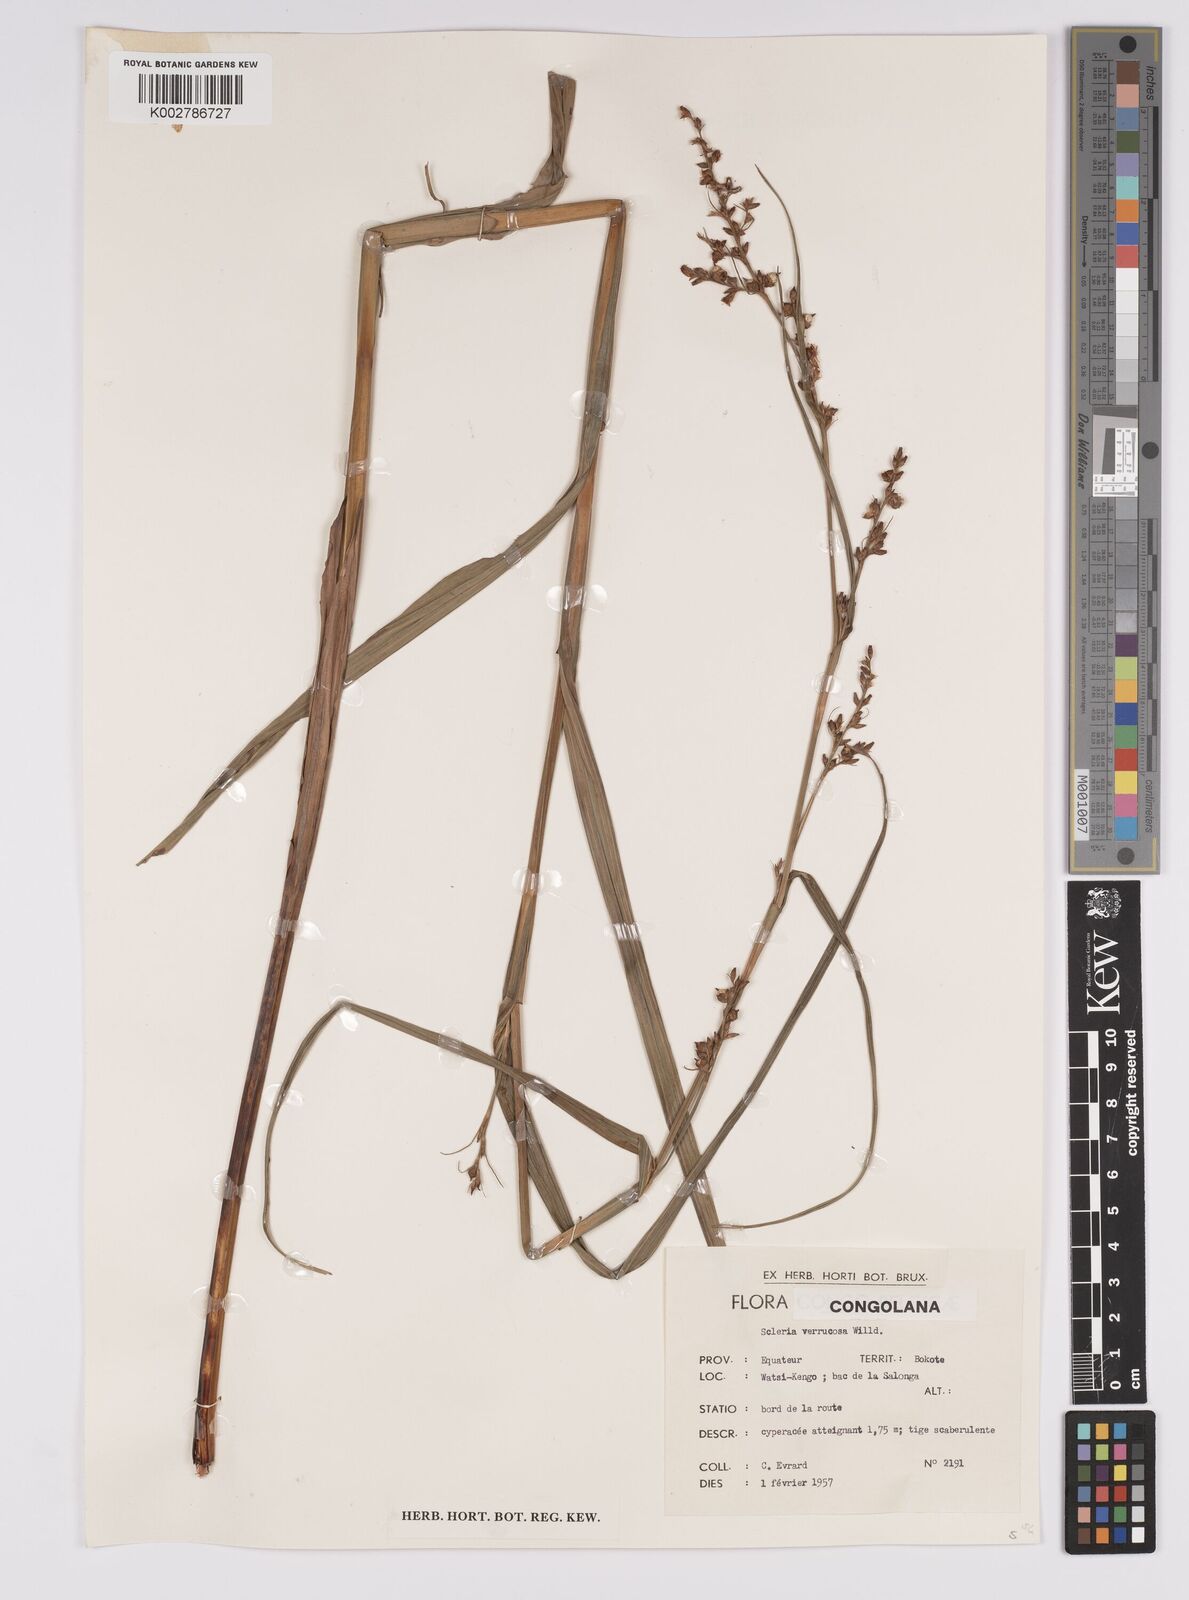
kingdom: Plantae
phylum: Tracheophyta
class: Liliopsida
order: Poales
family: Cyperaceae
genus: Scleria
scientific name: Scleria verrucosa
